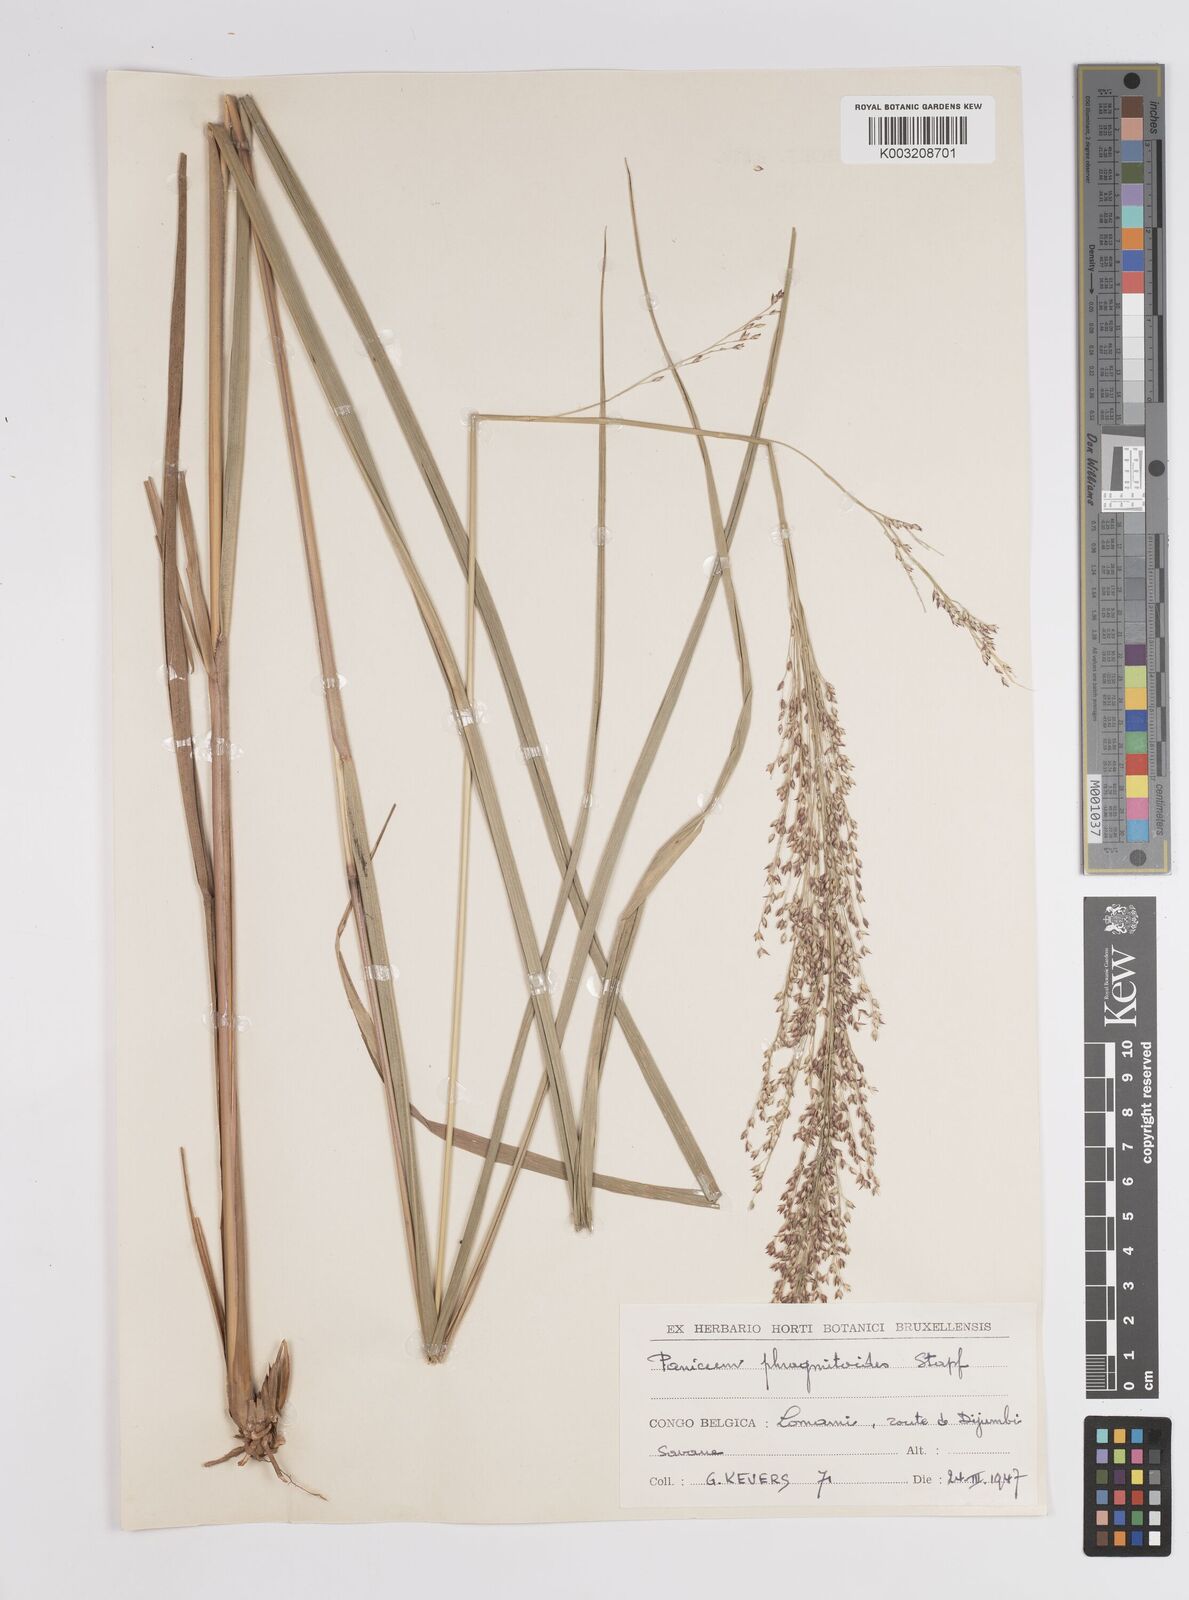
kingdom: Plantae
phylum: Tracheophyta
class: Liliopsida
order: Poales
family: Poaceae
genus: Panicum
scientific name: Panicum phragmitoides
